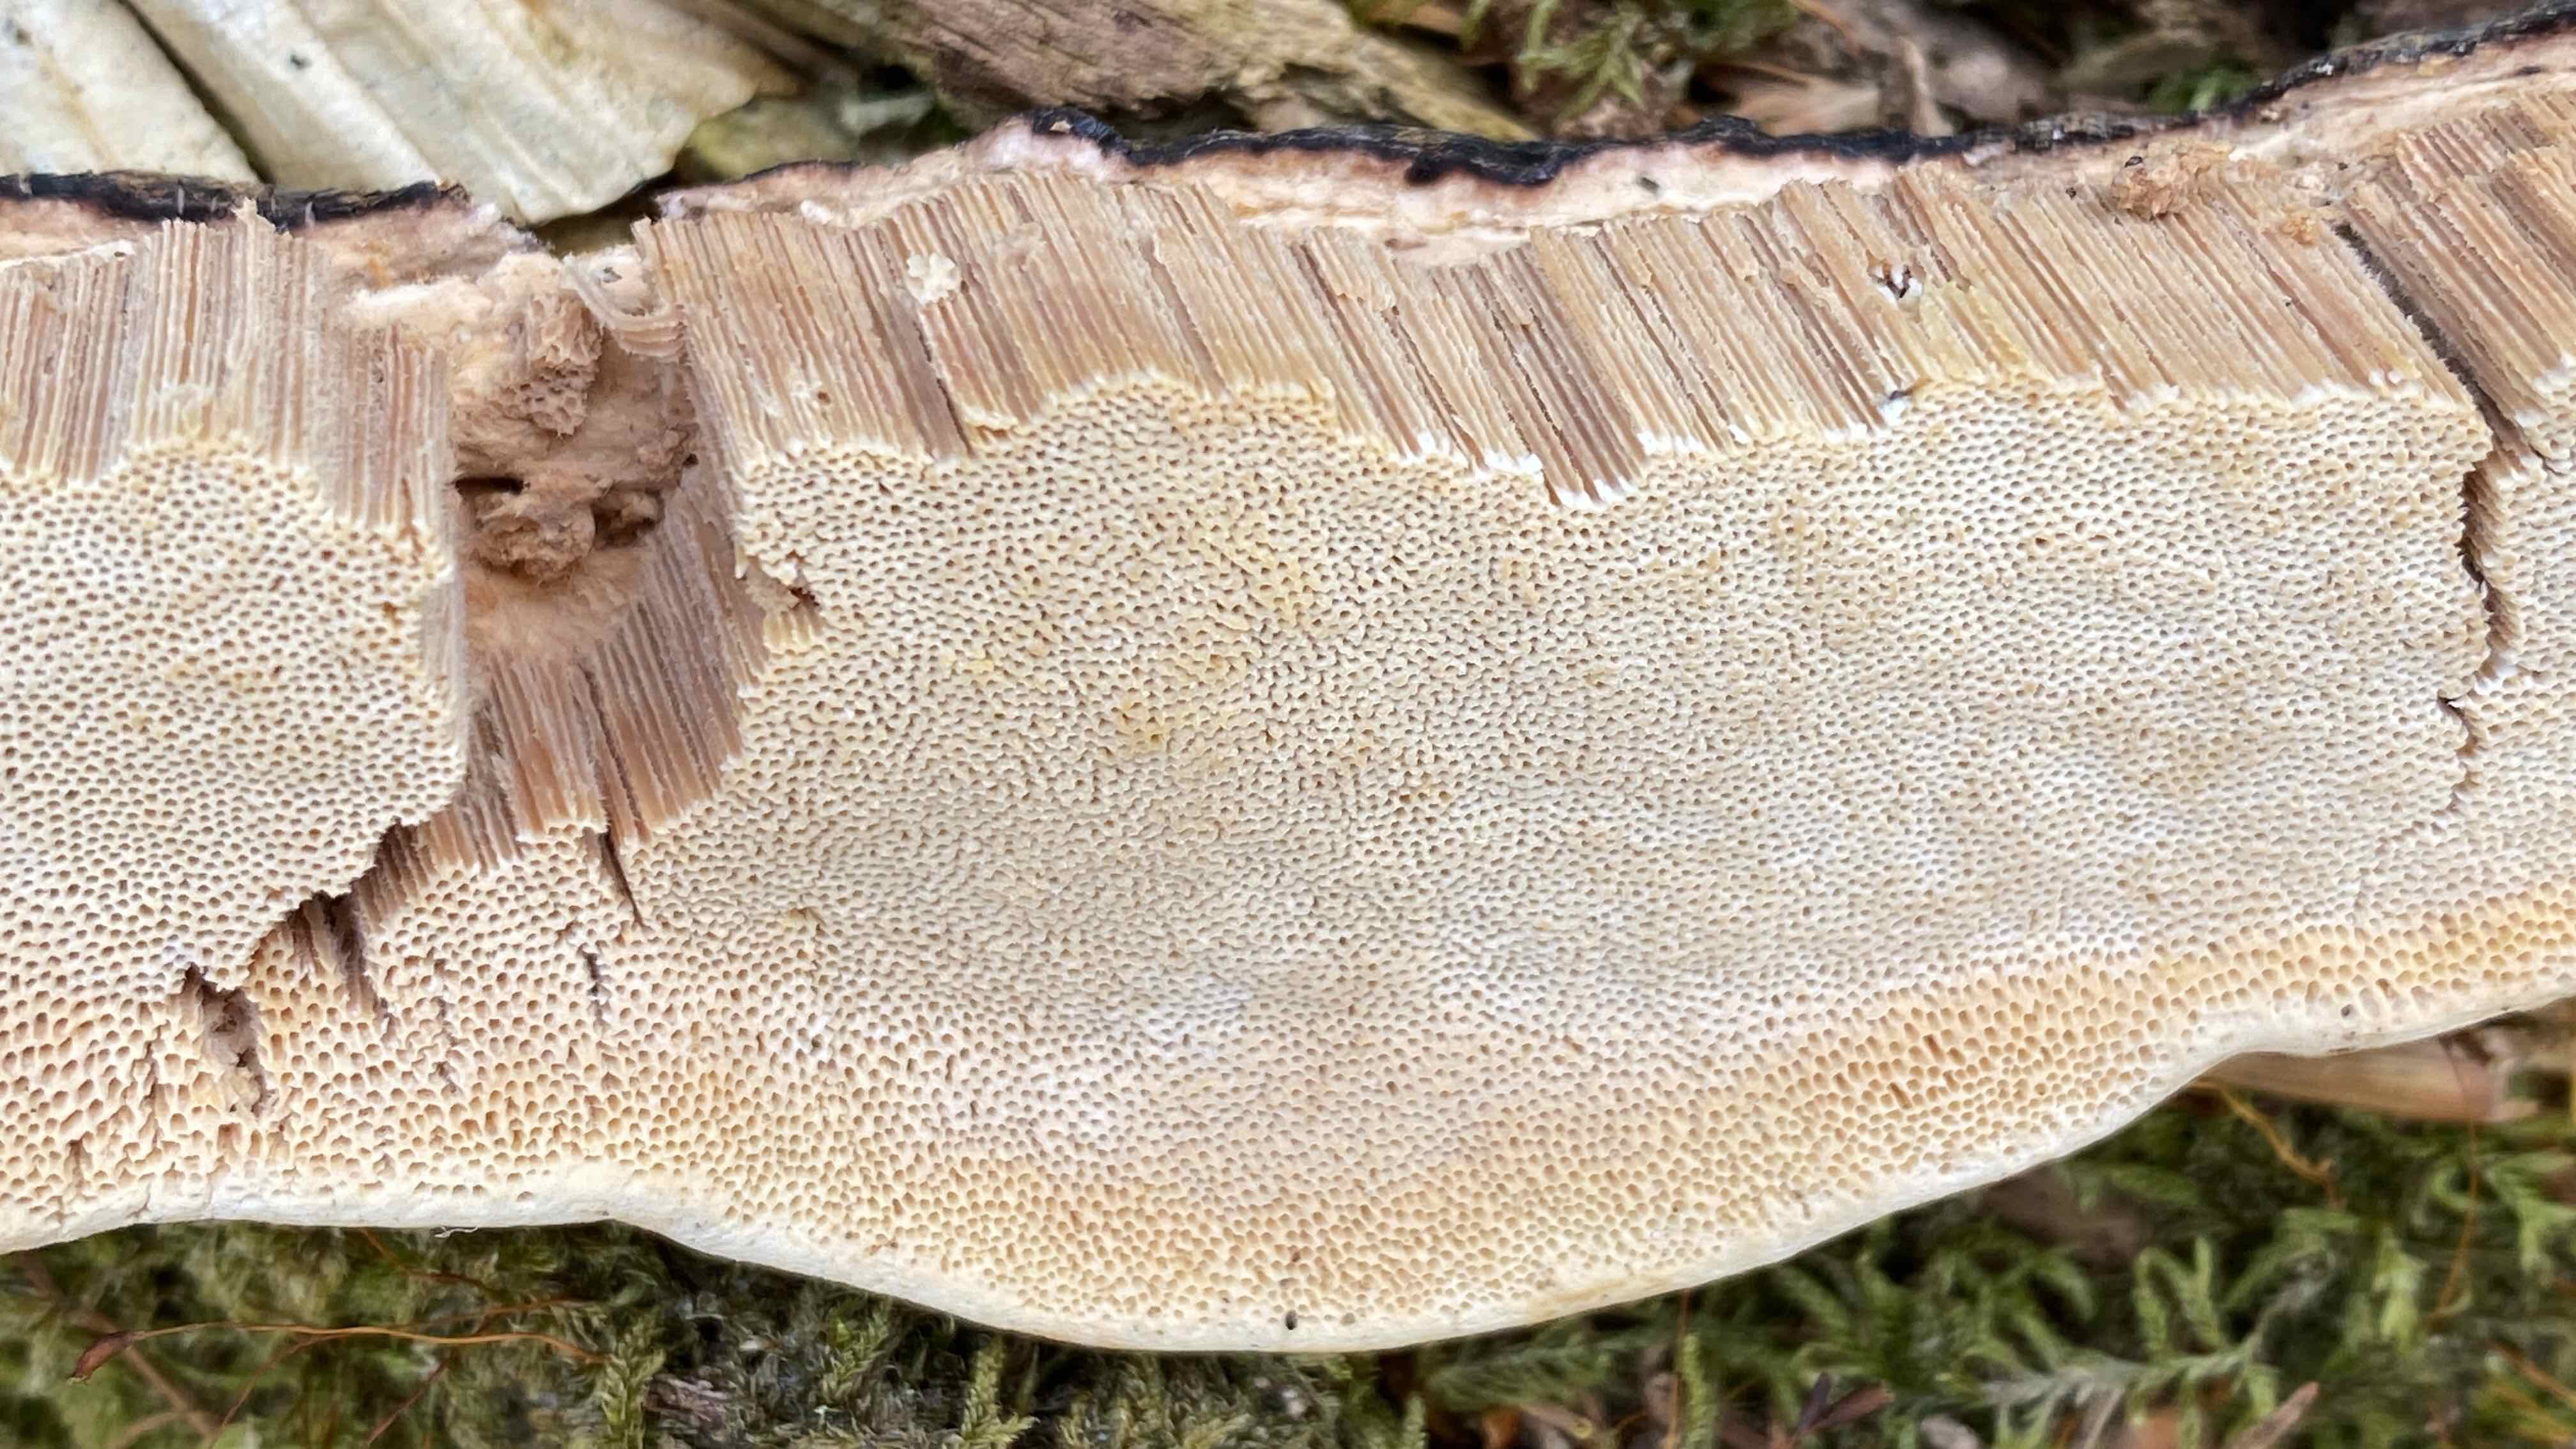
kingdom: Fungi
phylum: Basidiomycota
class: Agaricomycetes
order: Polyporales
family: Fomitopsidaceae
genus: Fomitopsis
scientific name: Fomitopsis pinicola
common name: randbæltet hovporesvamp
